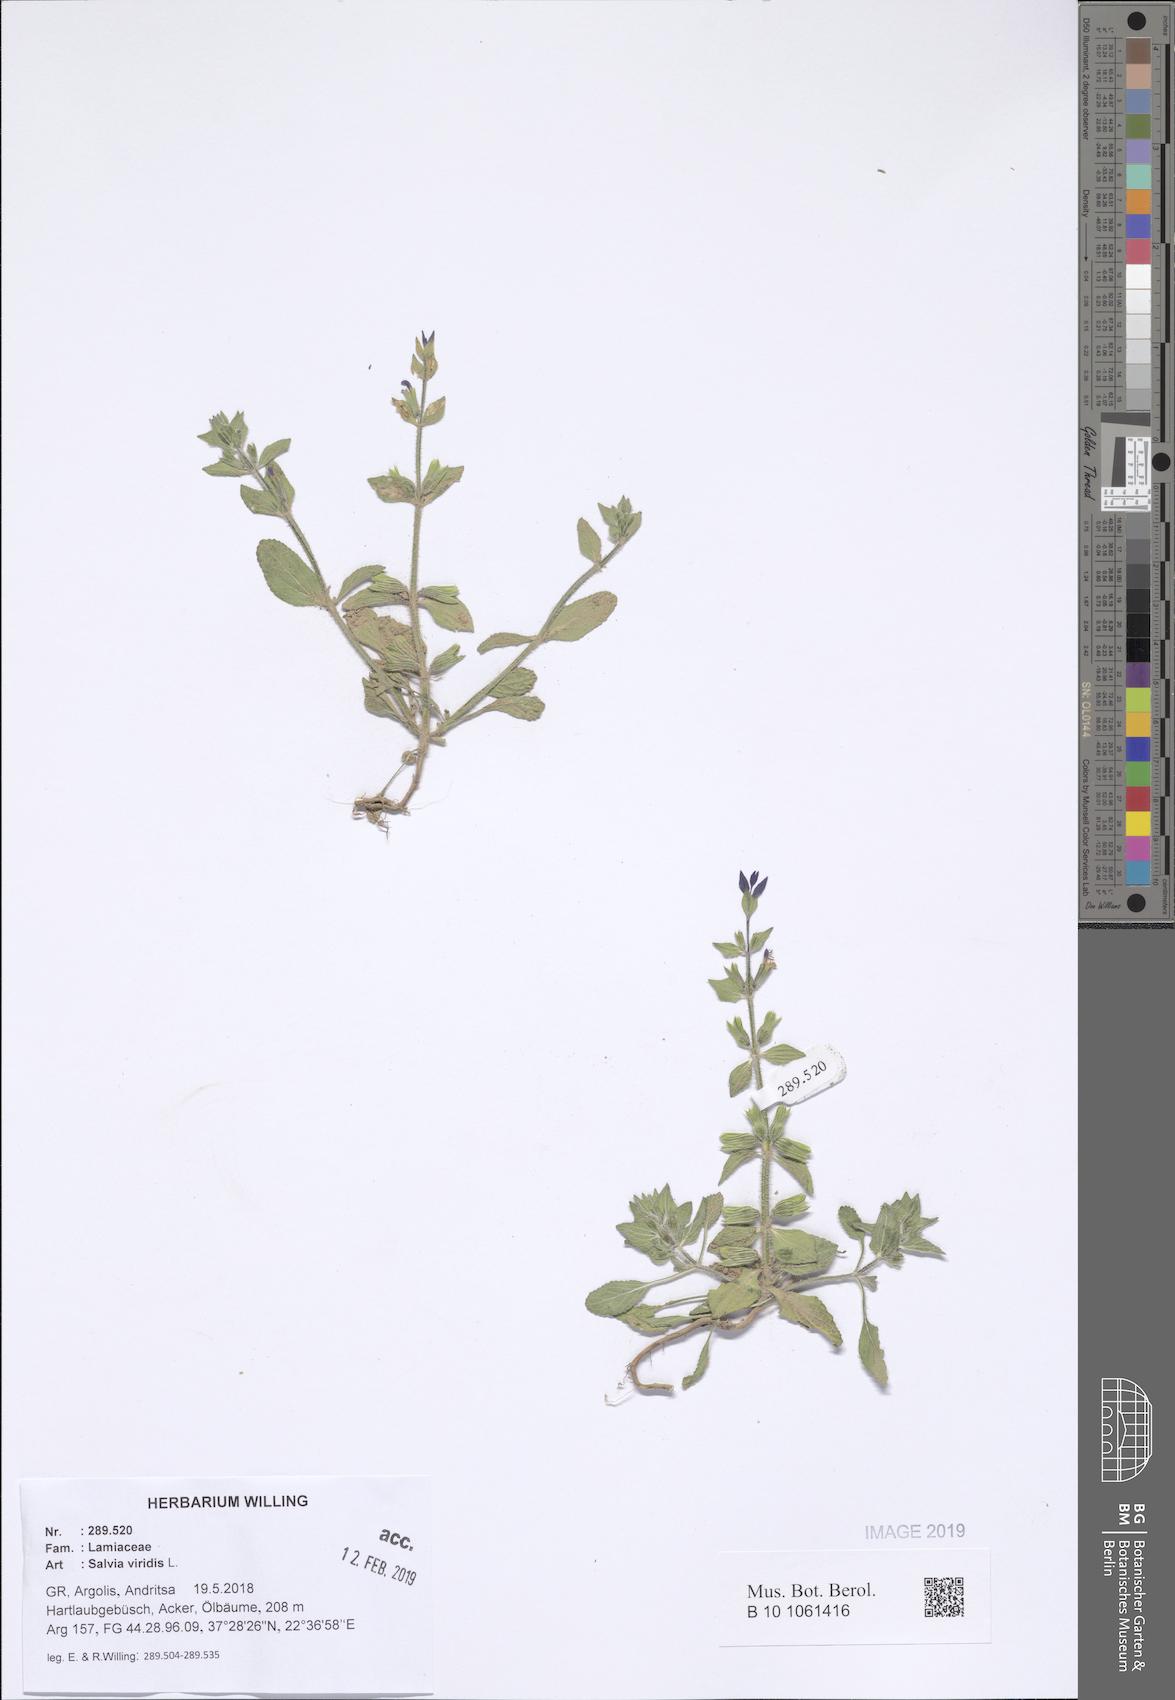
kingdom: Plantae
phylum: Tracheophyta
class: Magnoliopsida
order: Lamiales
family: Lamiaceae
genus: Salvia
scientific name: Salvia viridis
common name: Annual clary
